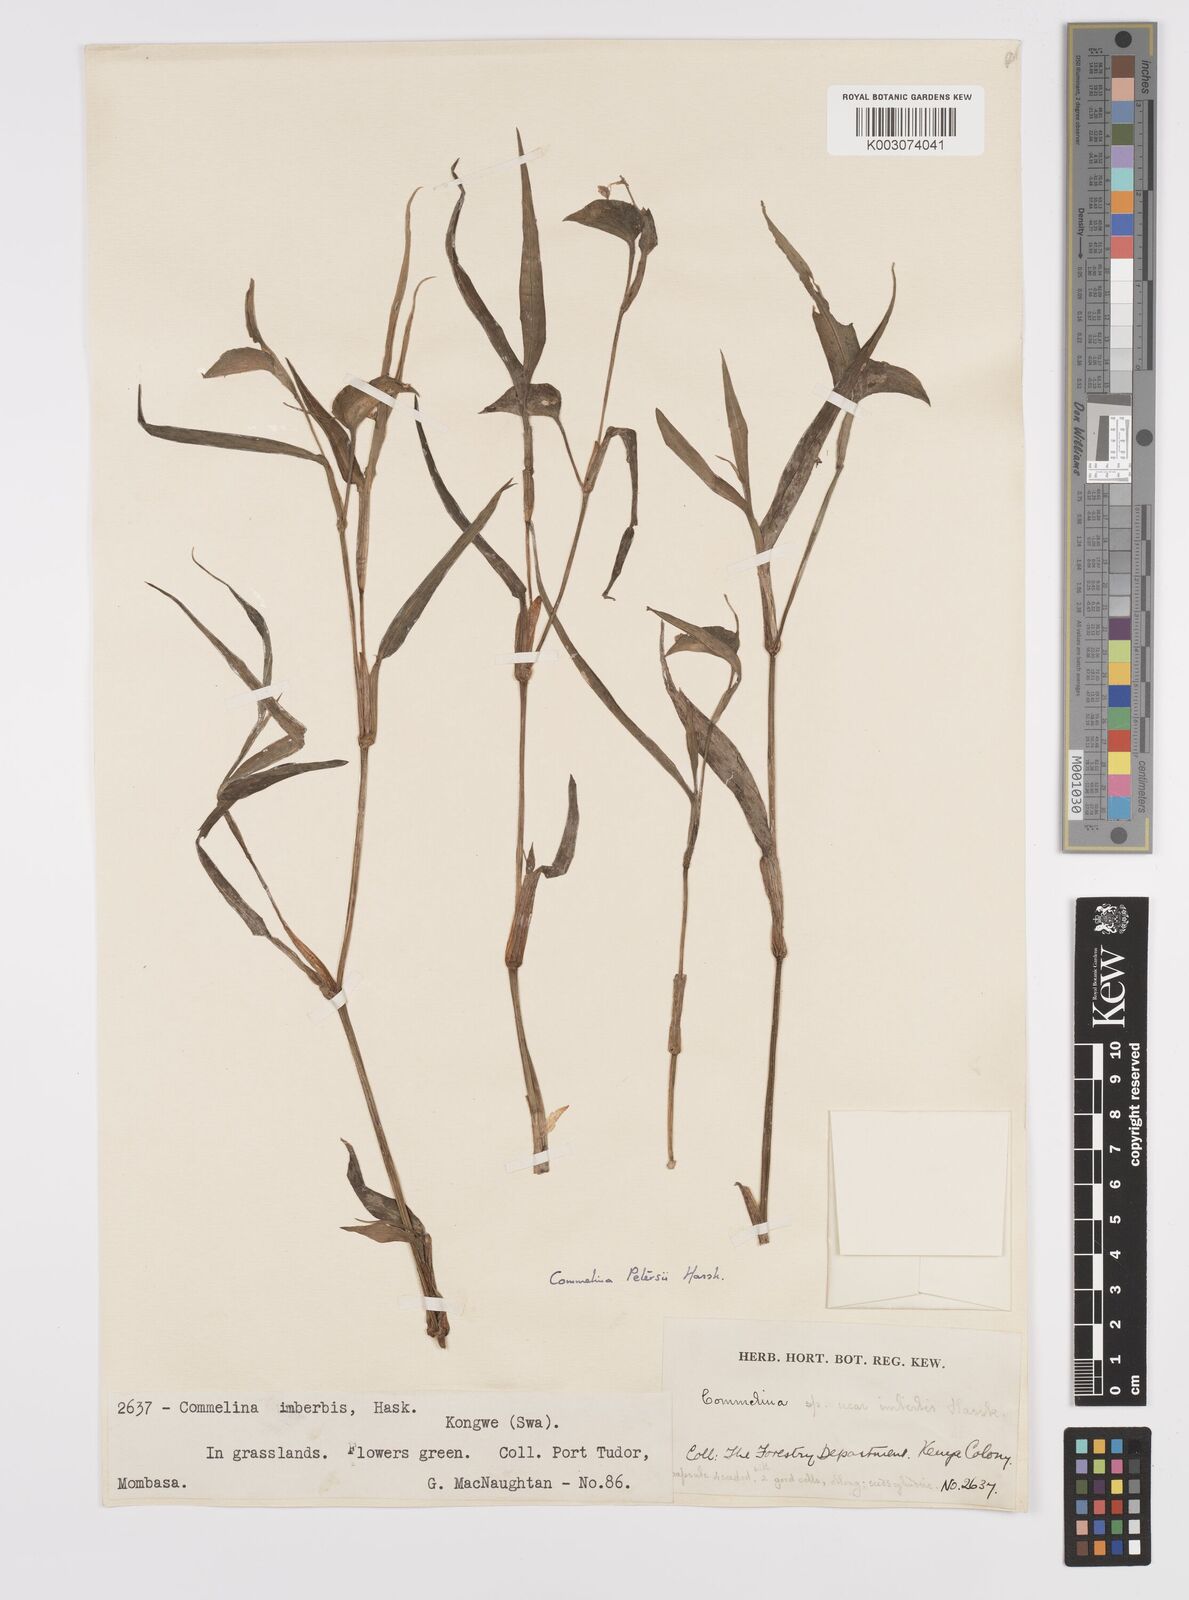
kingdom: Plantae
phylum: Tracheophyta
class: Liliopsida
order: Commelinales
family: Commelinaceae
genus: Commelina
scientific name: Commelina petersii
